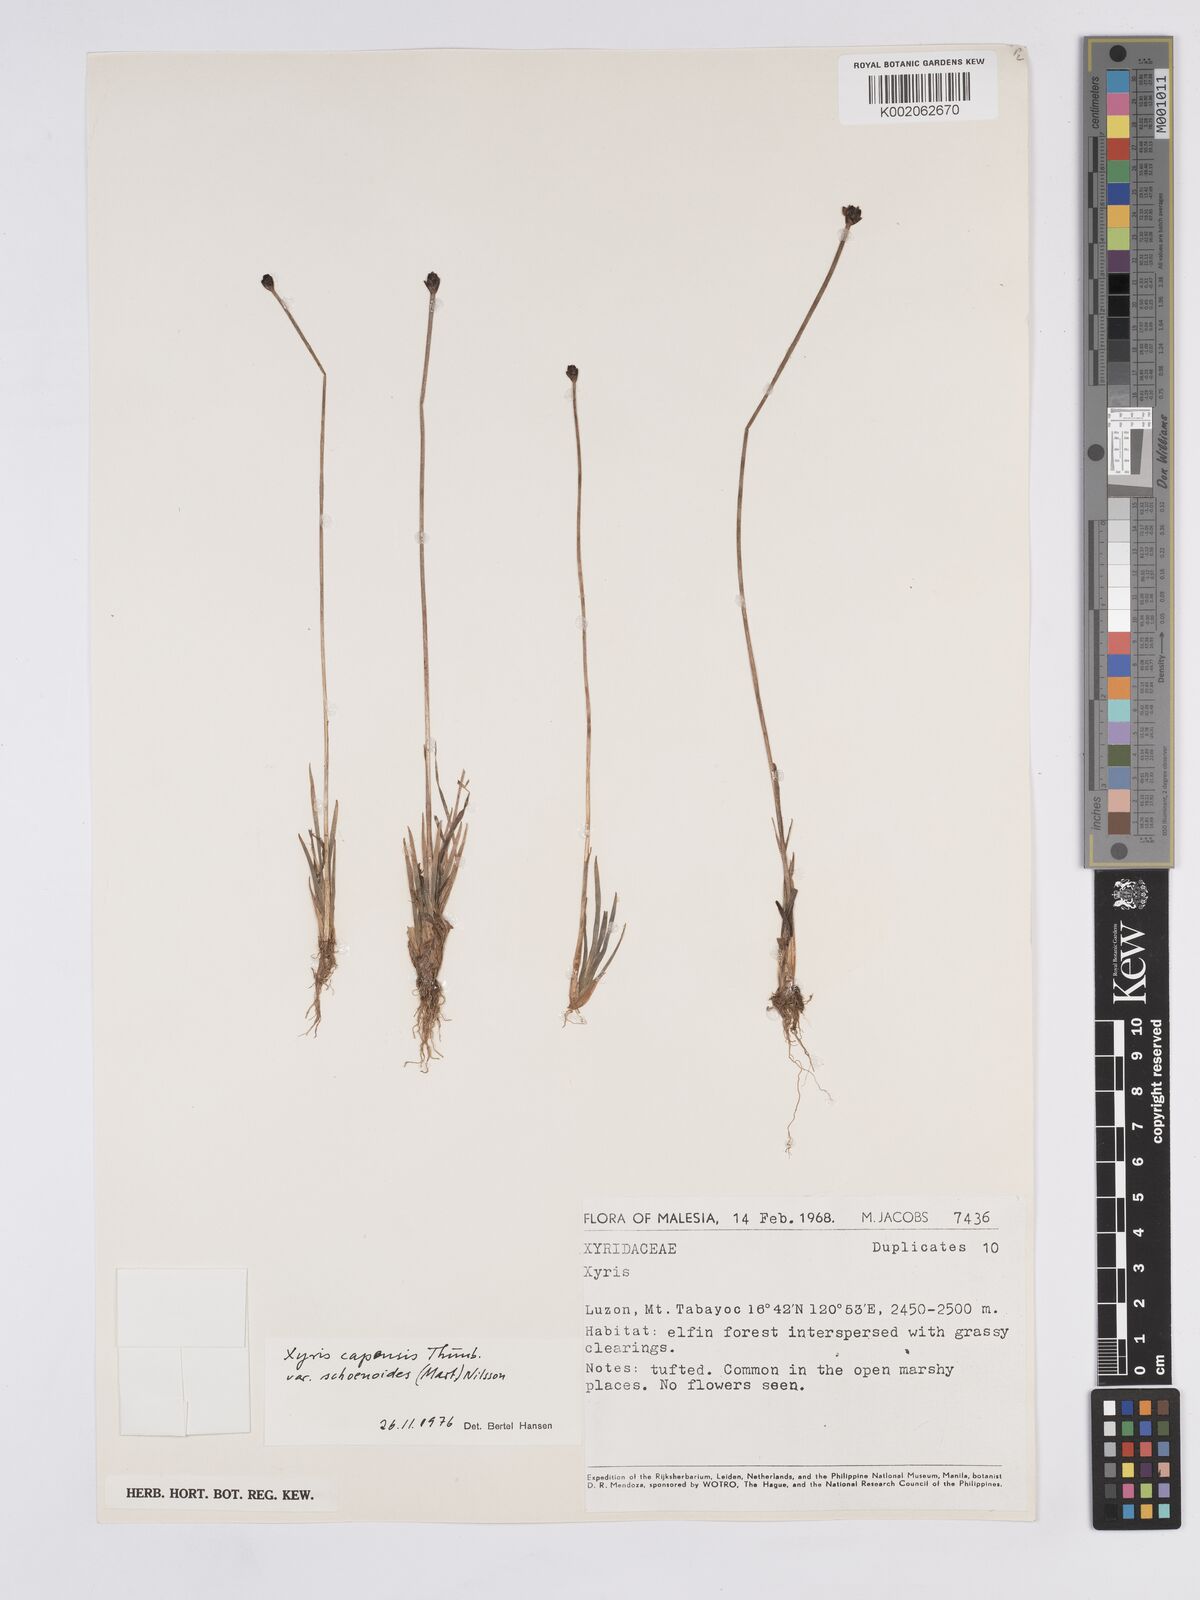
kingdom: Plantae
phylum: Tracheophyta
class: Liliopsida
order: Poales
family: Xyridaceae
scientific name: Xyridaceae
